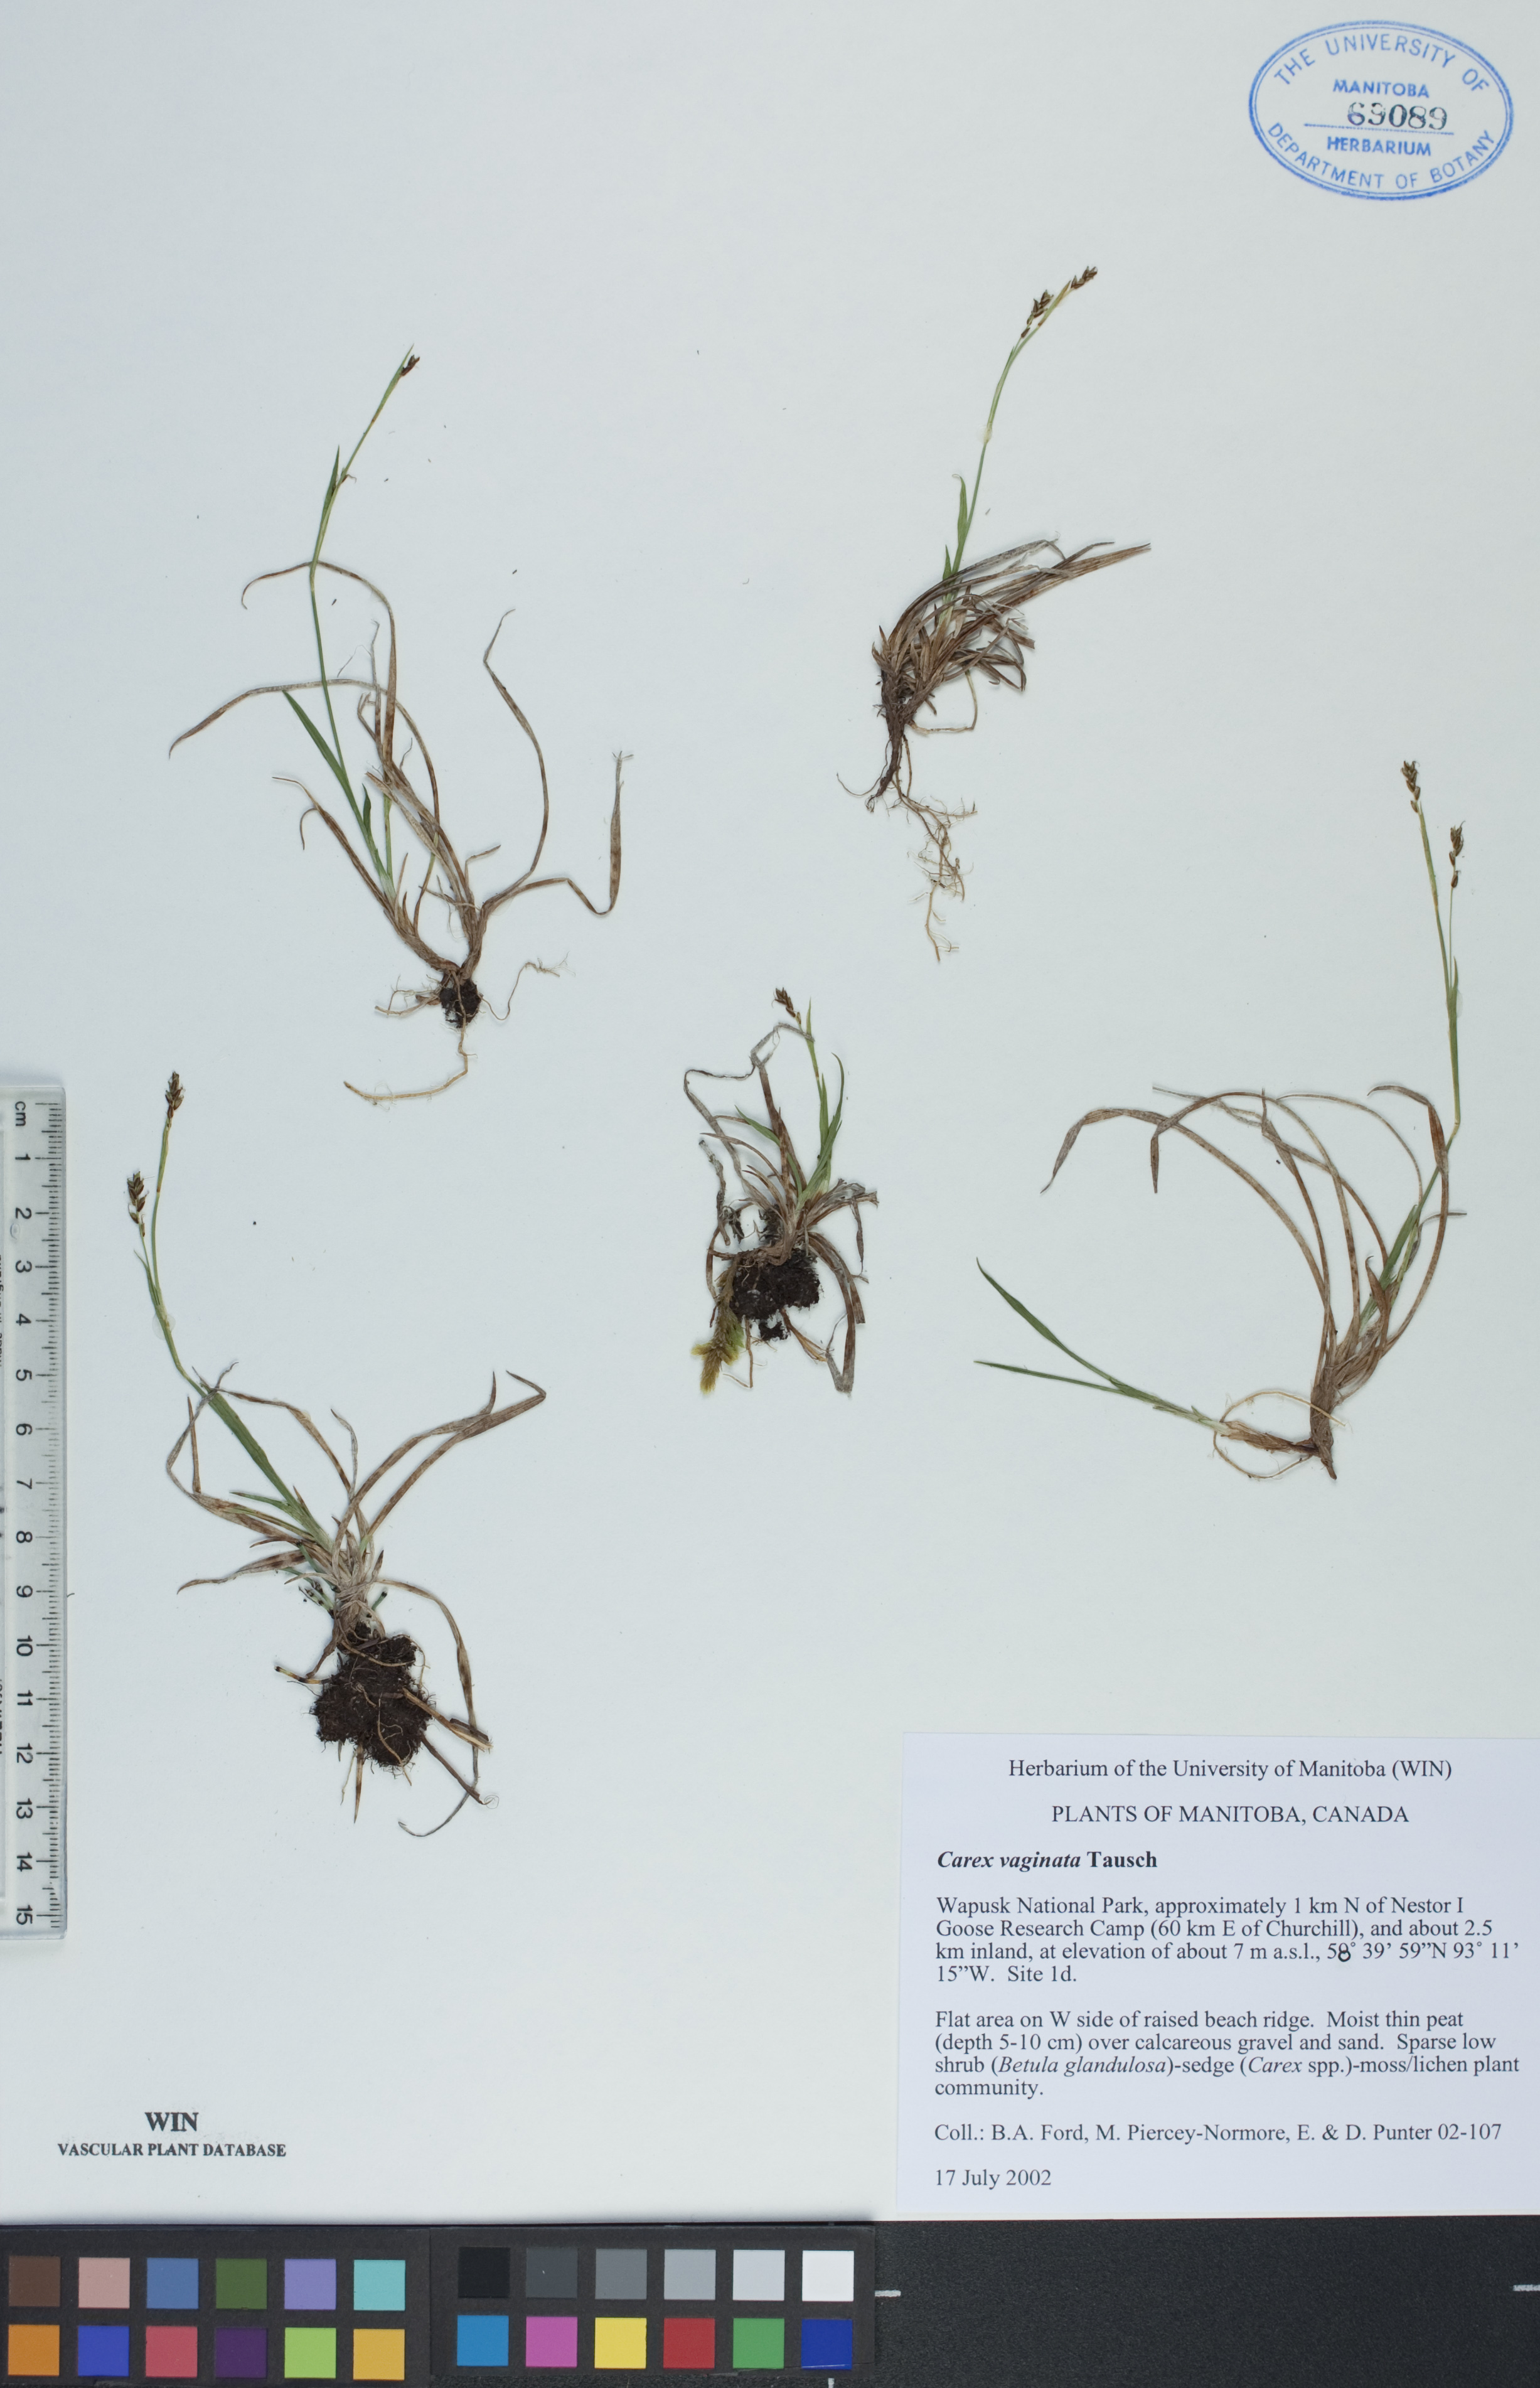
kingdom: Plantae
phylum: Tracheophyta
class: Liliopsida
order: Poales
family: Cyperaceae
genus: Carex
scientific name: Carex vaginata
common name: Sheathed sedge
